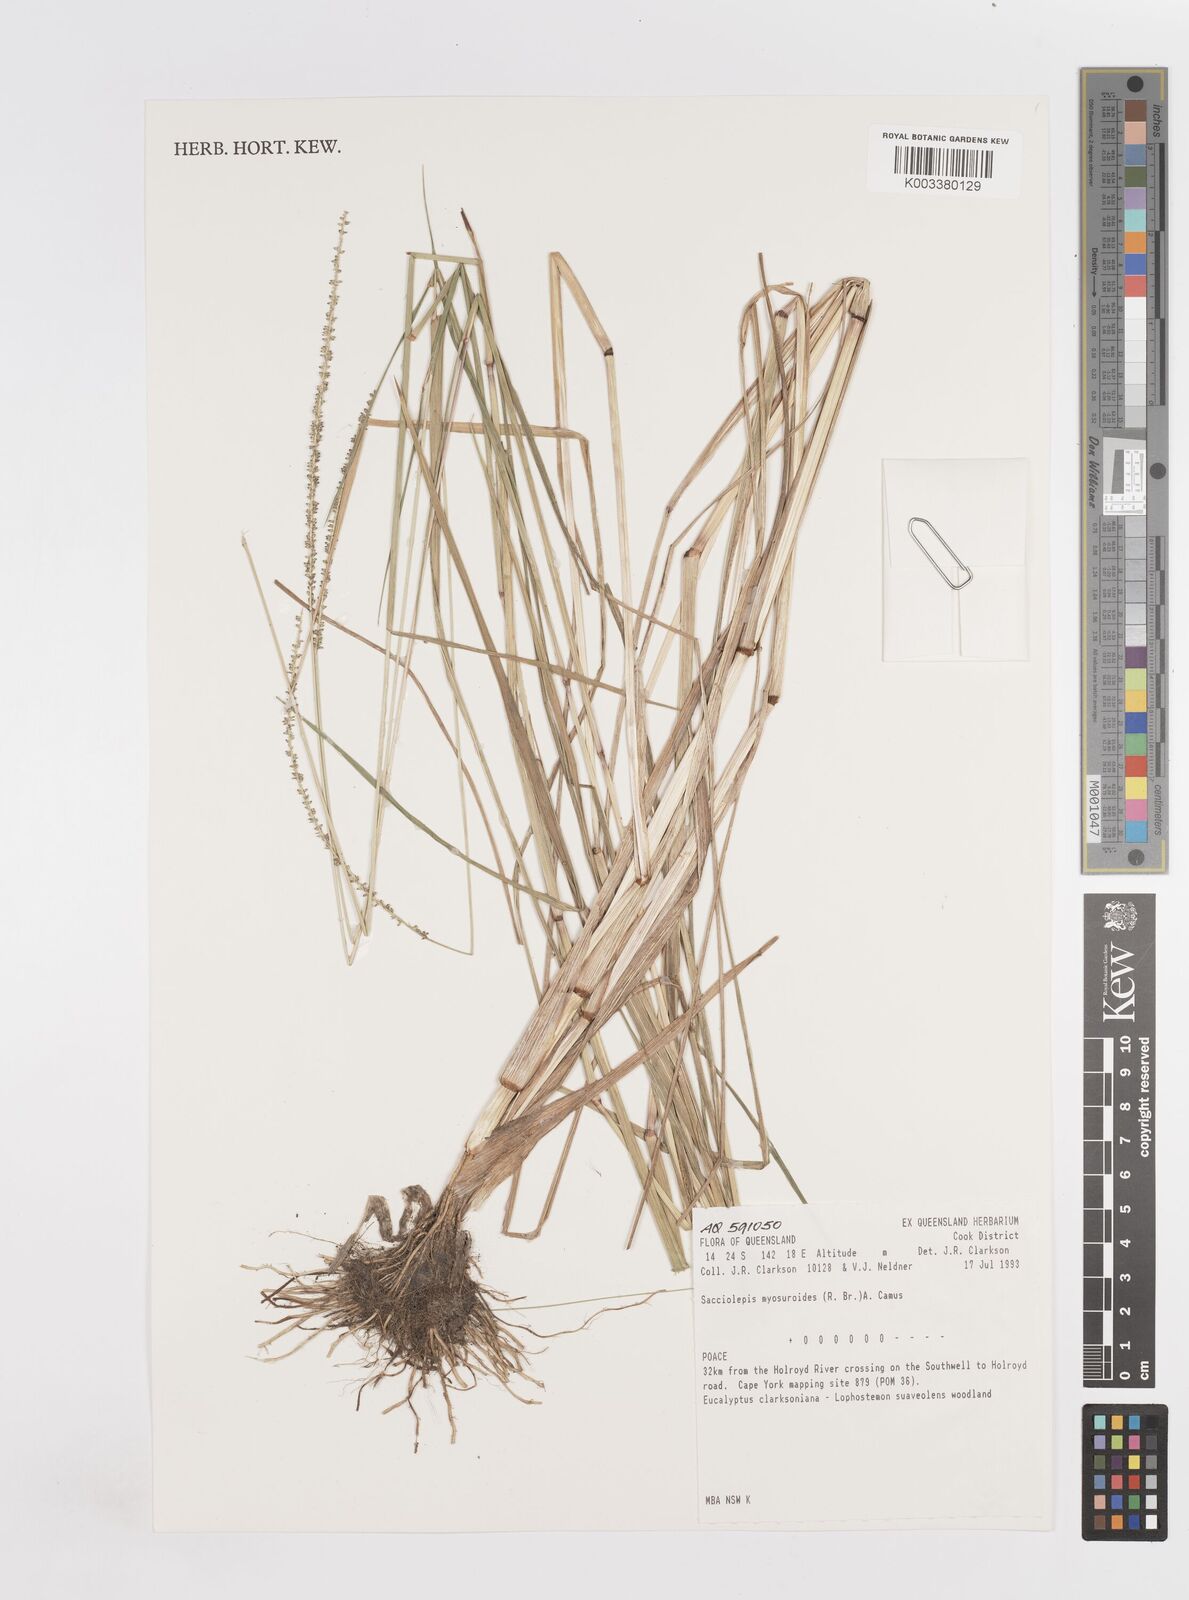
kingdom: Plantae
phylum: Tracheophyta
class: Liliopsida
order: Poales
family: Poaceae
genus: Sacciolepis
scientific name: Sacciolepis myosuroides
